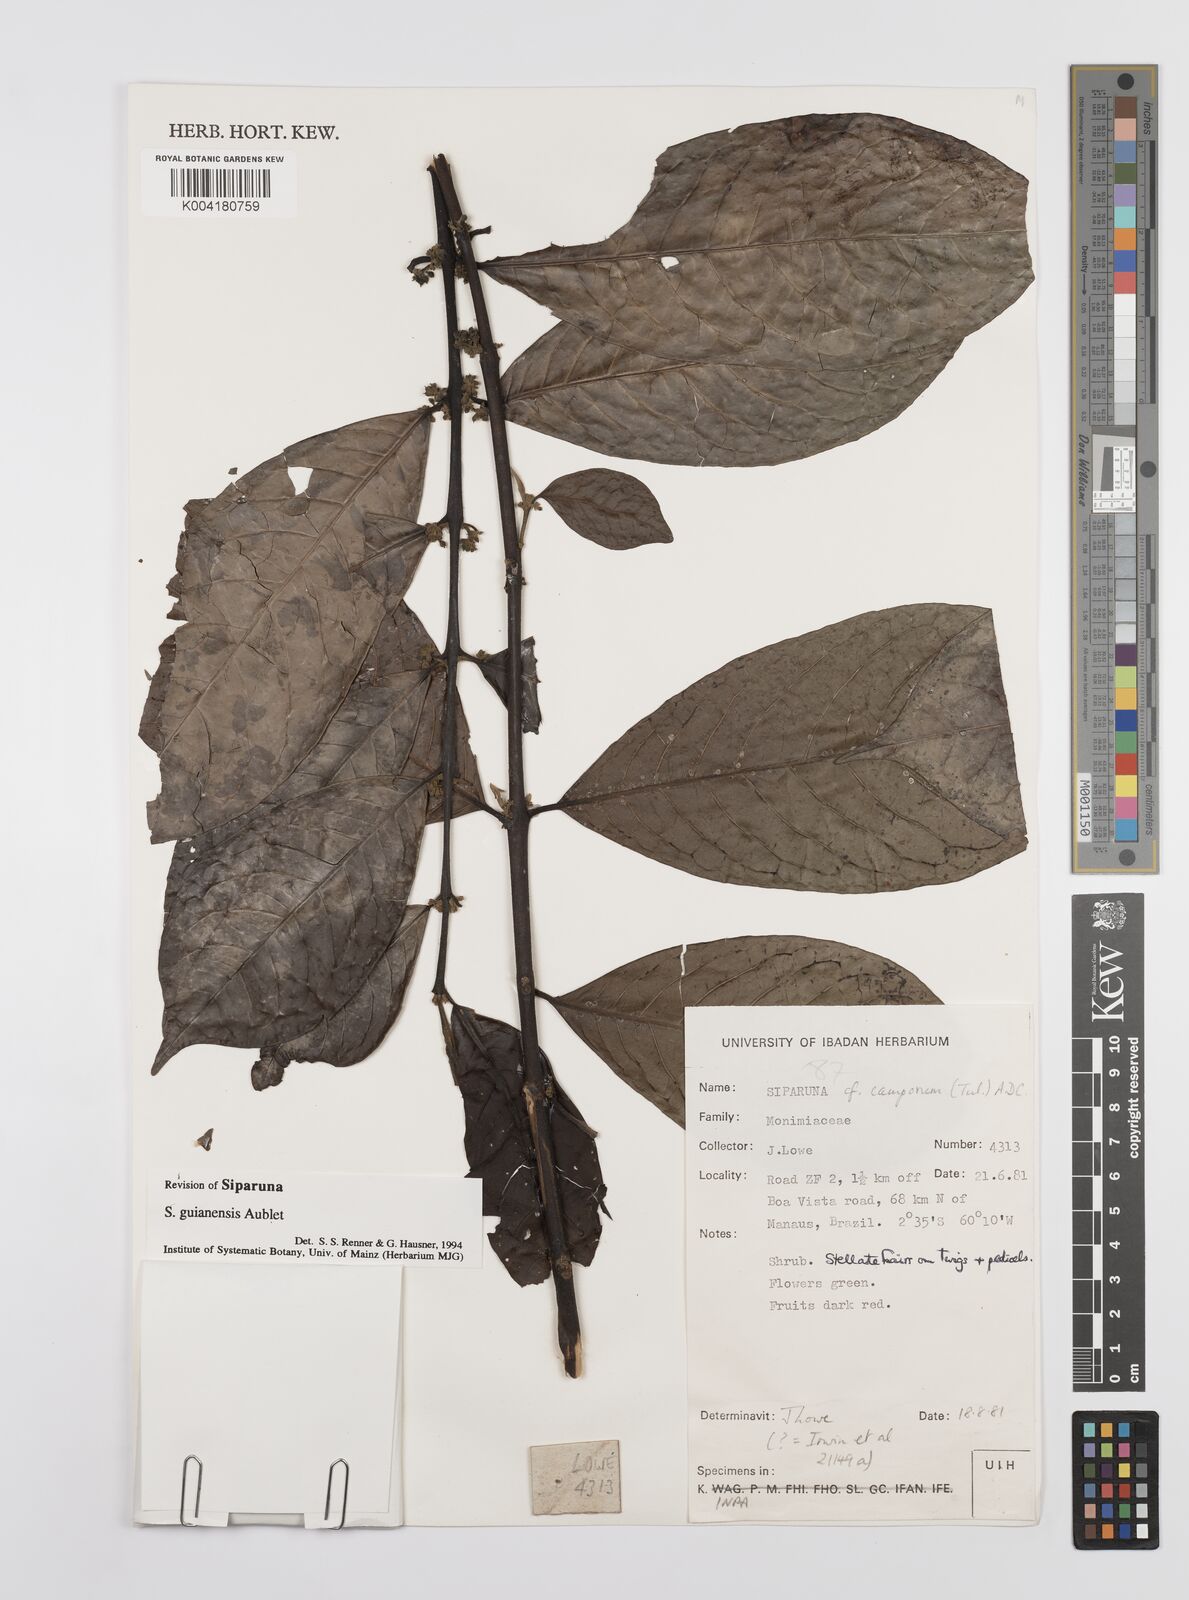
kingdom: Plantae
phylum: Tracheophyta
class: Magnoliopsida
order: Laurales
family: Siparunaceae
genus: Siparuna
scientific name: Siparuna guianensis
